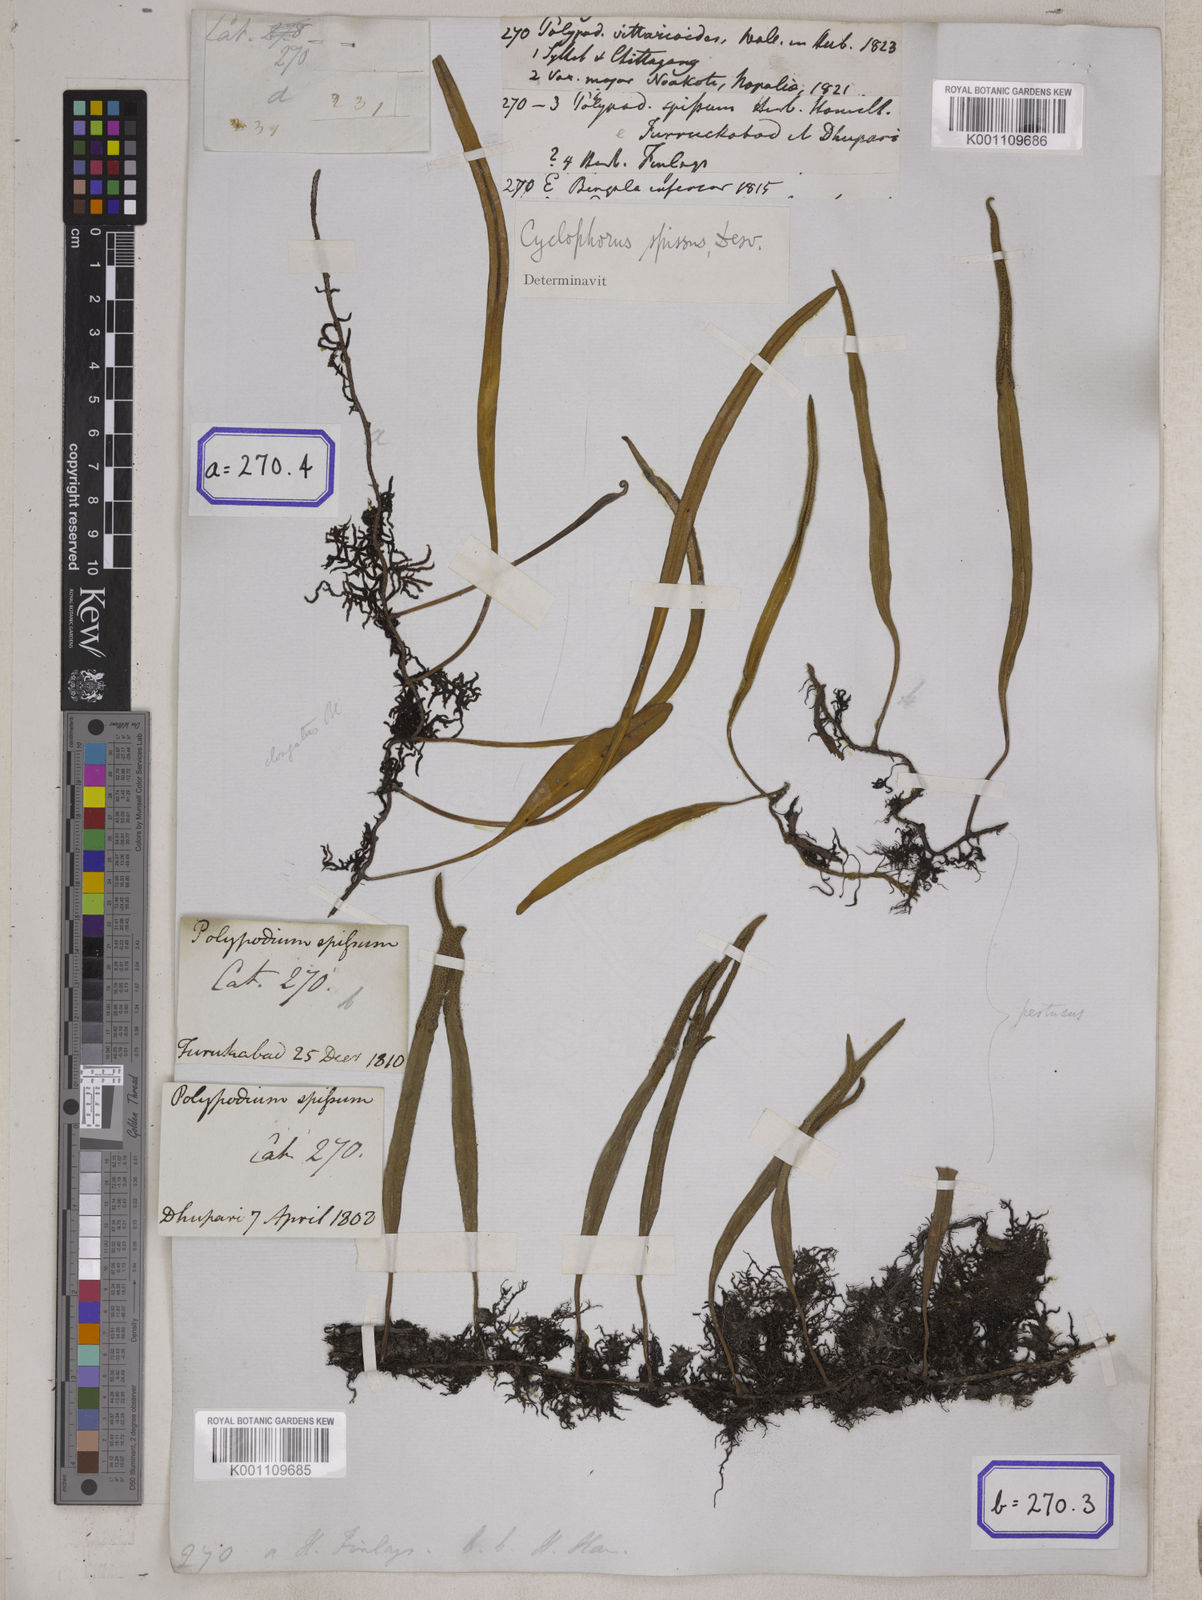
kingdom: Plantae
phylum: Tracheophyta
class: Polypodiopsida
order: Polypodiales
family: Polypodiaceae
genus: Pyrrosia
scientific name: Pyrrosia lanceolata
